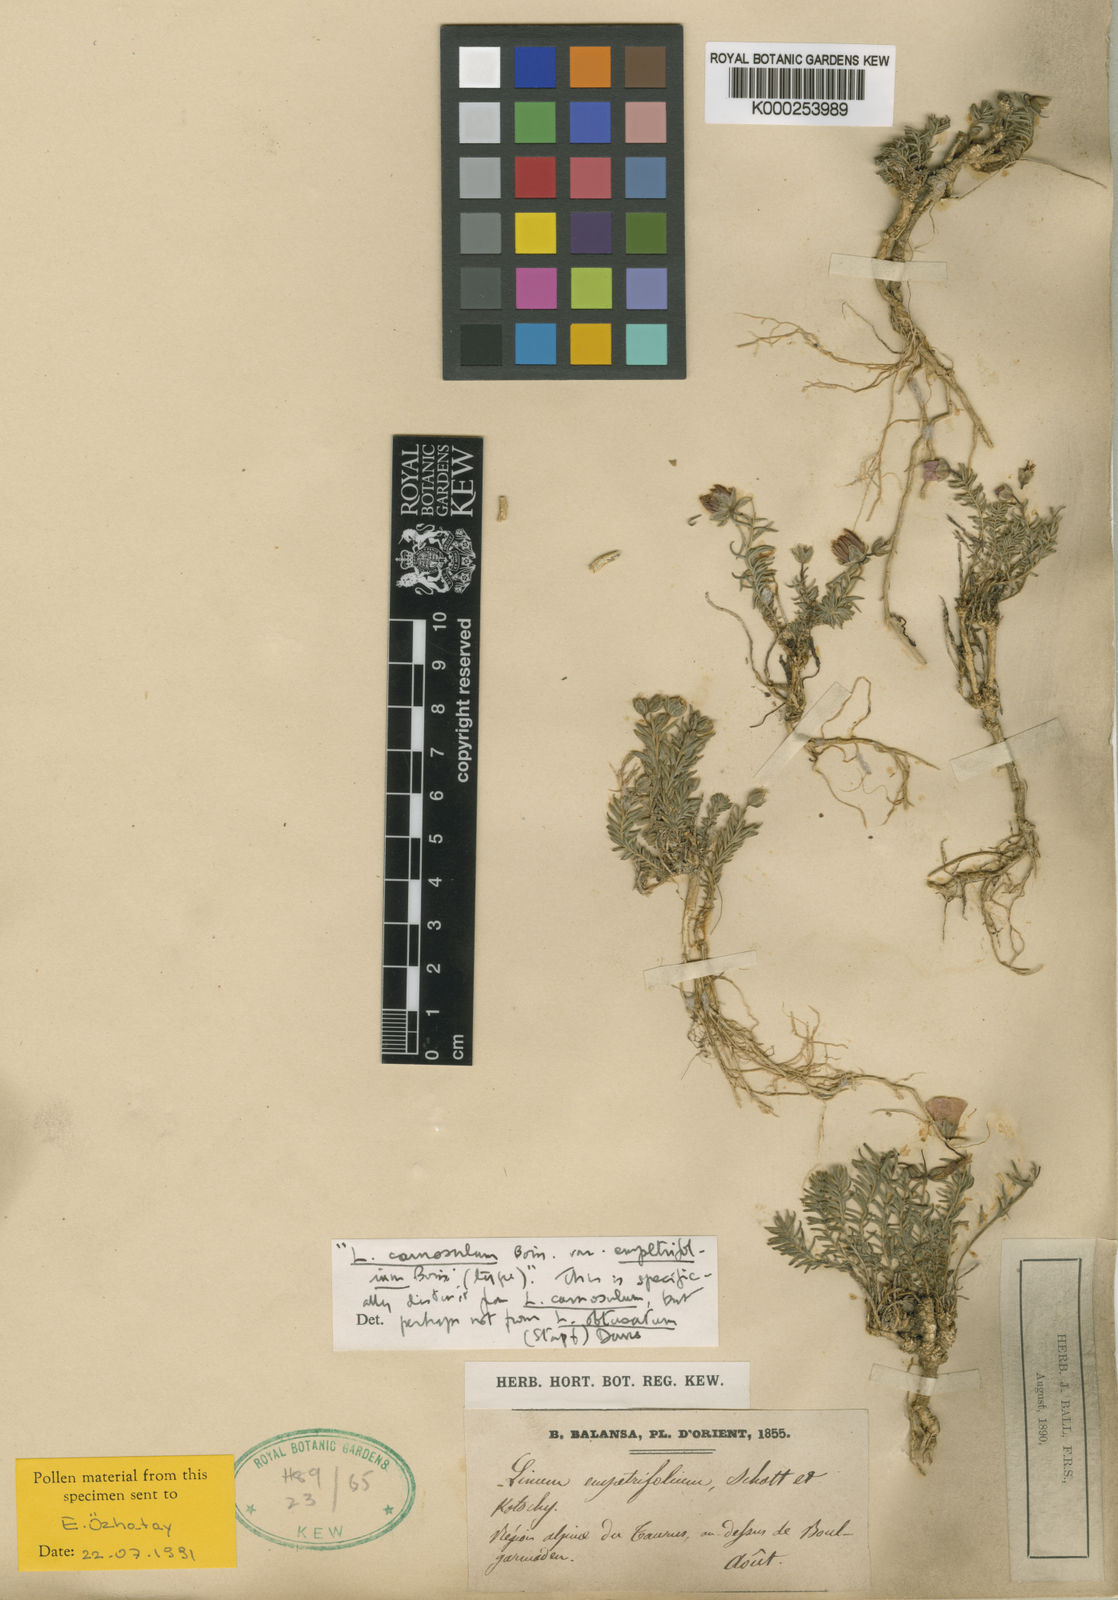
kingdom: Plantae
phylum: Tracheophyta
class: Magnoliopsida
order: Malpighiales
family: Linaceae
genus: Linum
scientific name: Linum empetrifolium
